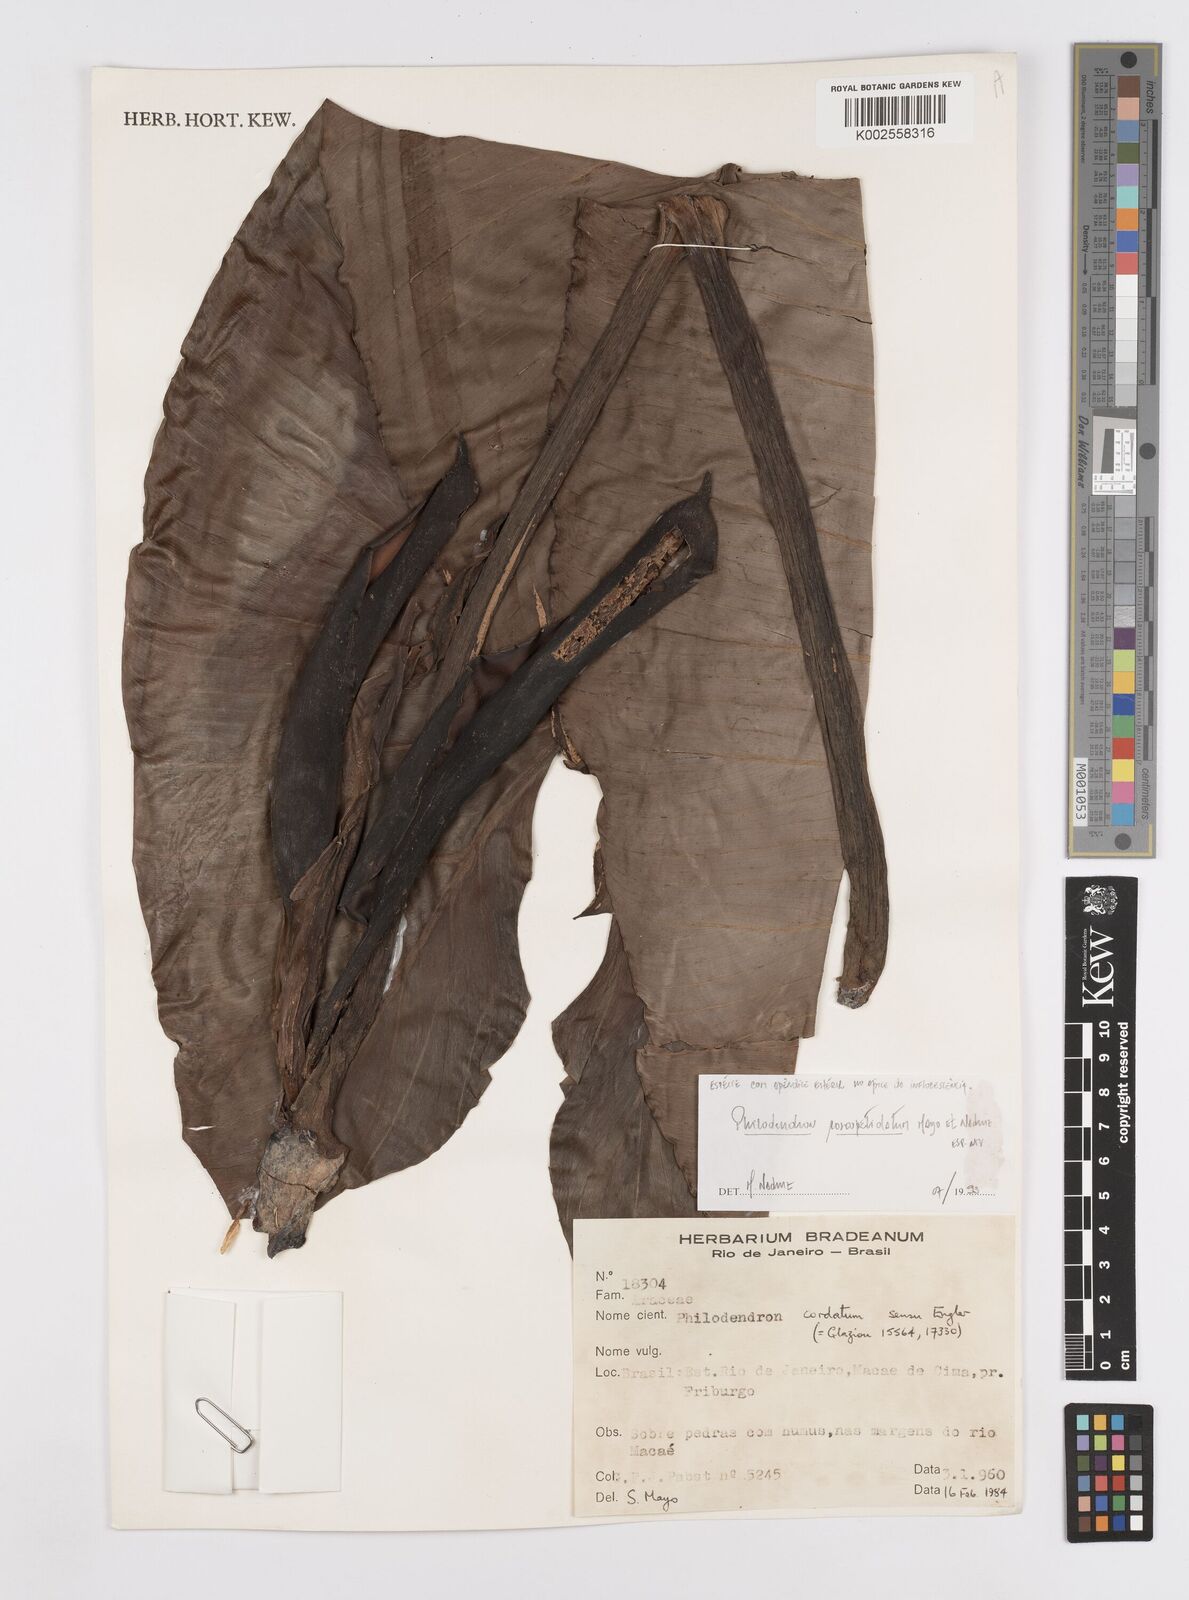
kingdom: Plantae
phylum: Tracheophyta
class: Liliopsida
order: Alismatales
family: Araceae
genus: Philodendron
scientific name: Philodendron roseopetiolatum
